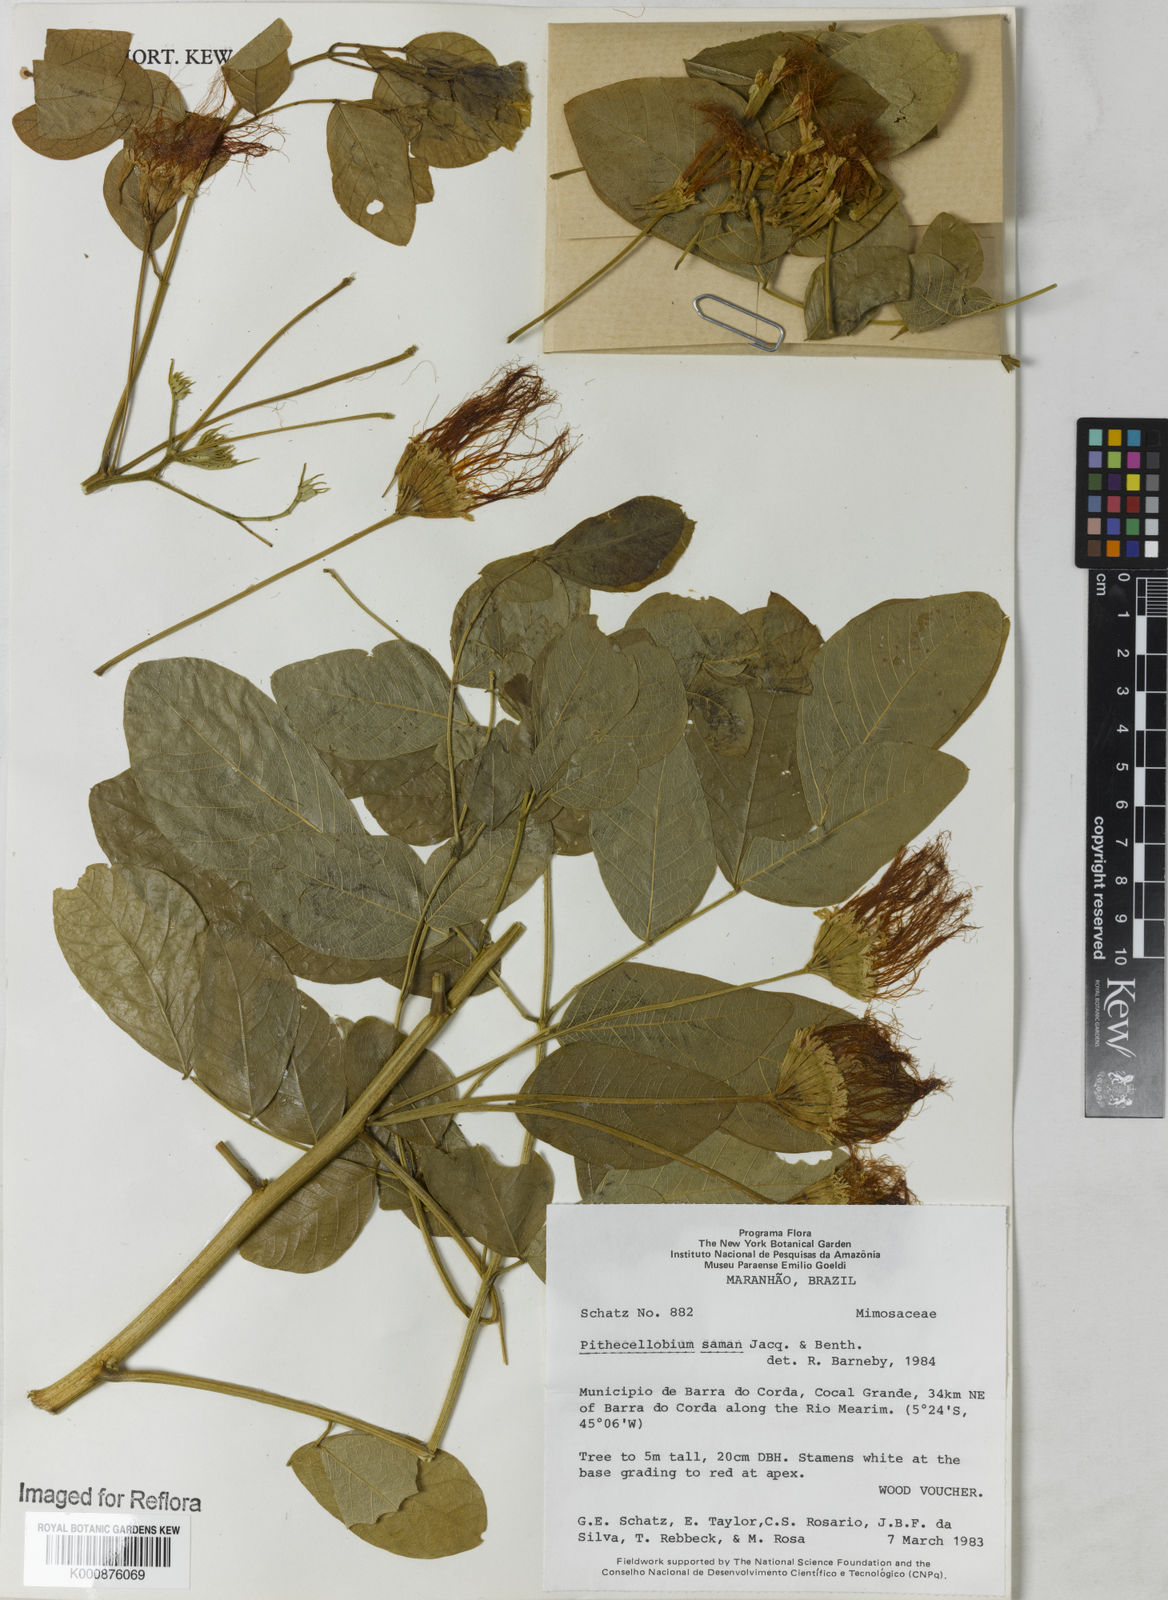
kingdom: Plantae
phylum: Tracheophyta
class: Magnoliopsida
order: Fabales
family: Fabaceae
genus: Samanea
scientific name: Samanea inopinata
